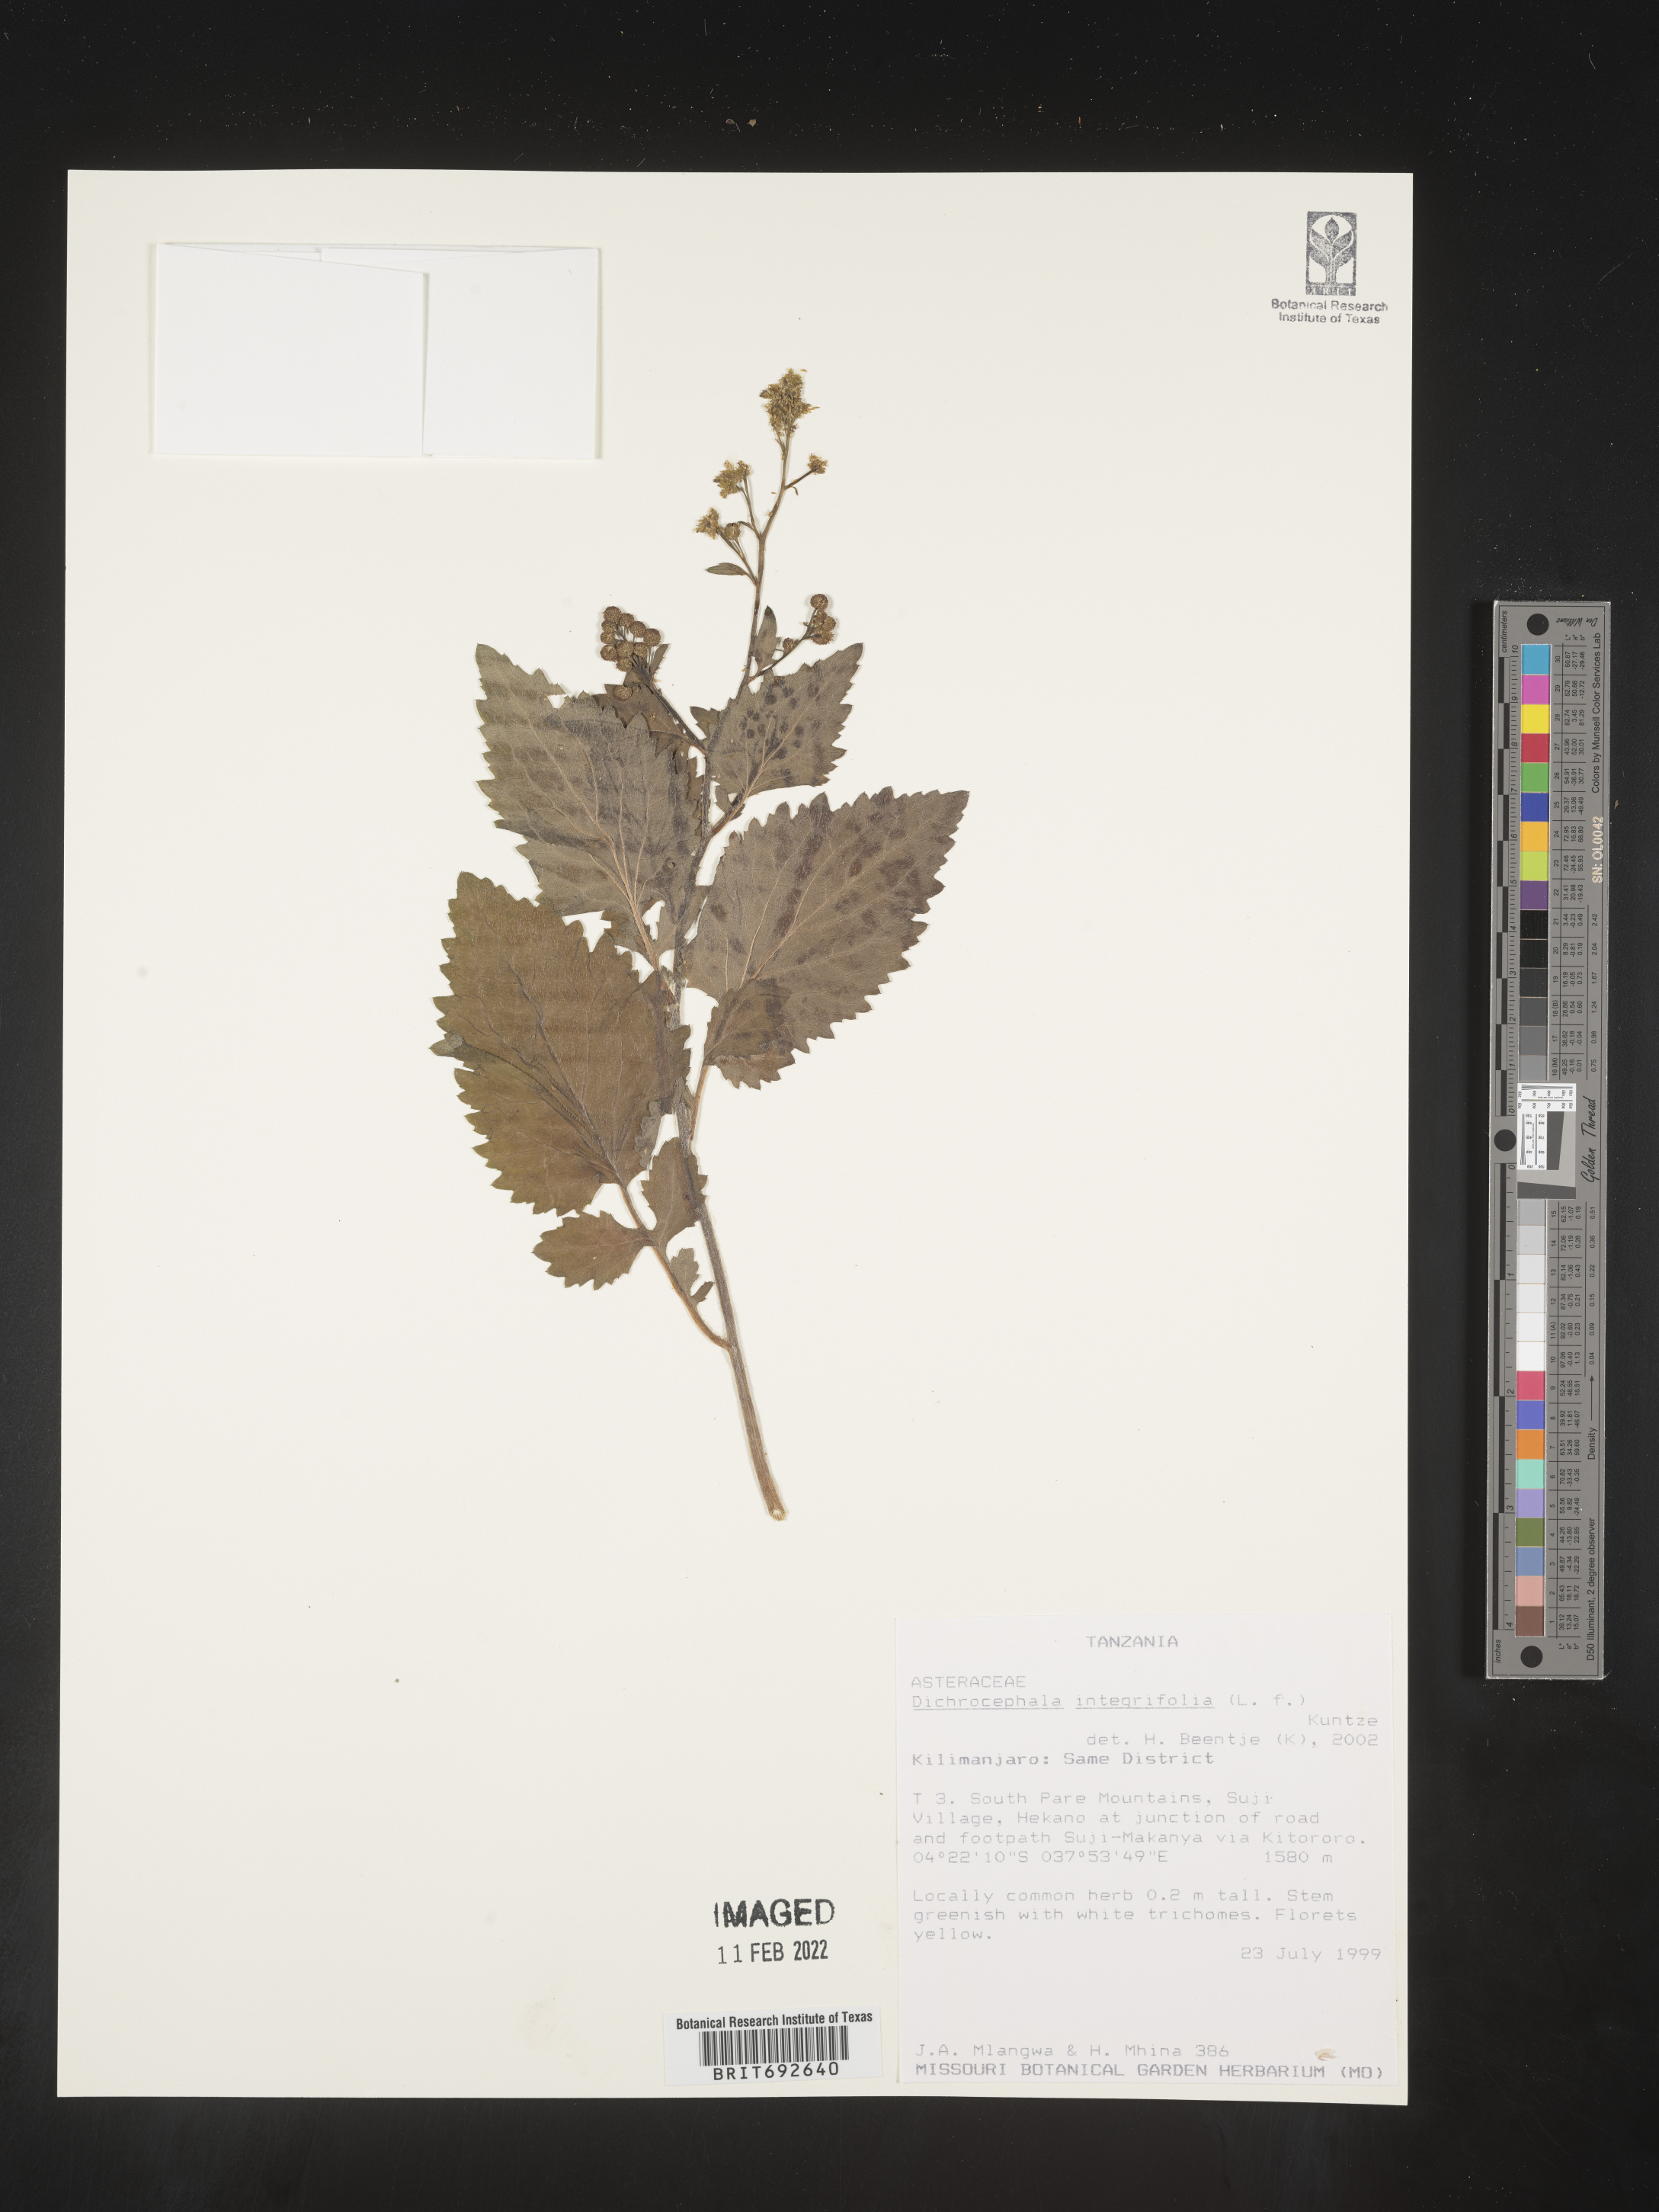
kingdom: Plantae
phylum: Tracheophyta
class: Magnoliopsida
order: Asterales
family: Asteraceae
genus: Dichrocephala
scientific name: Dichrocephala
